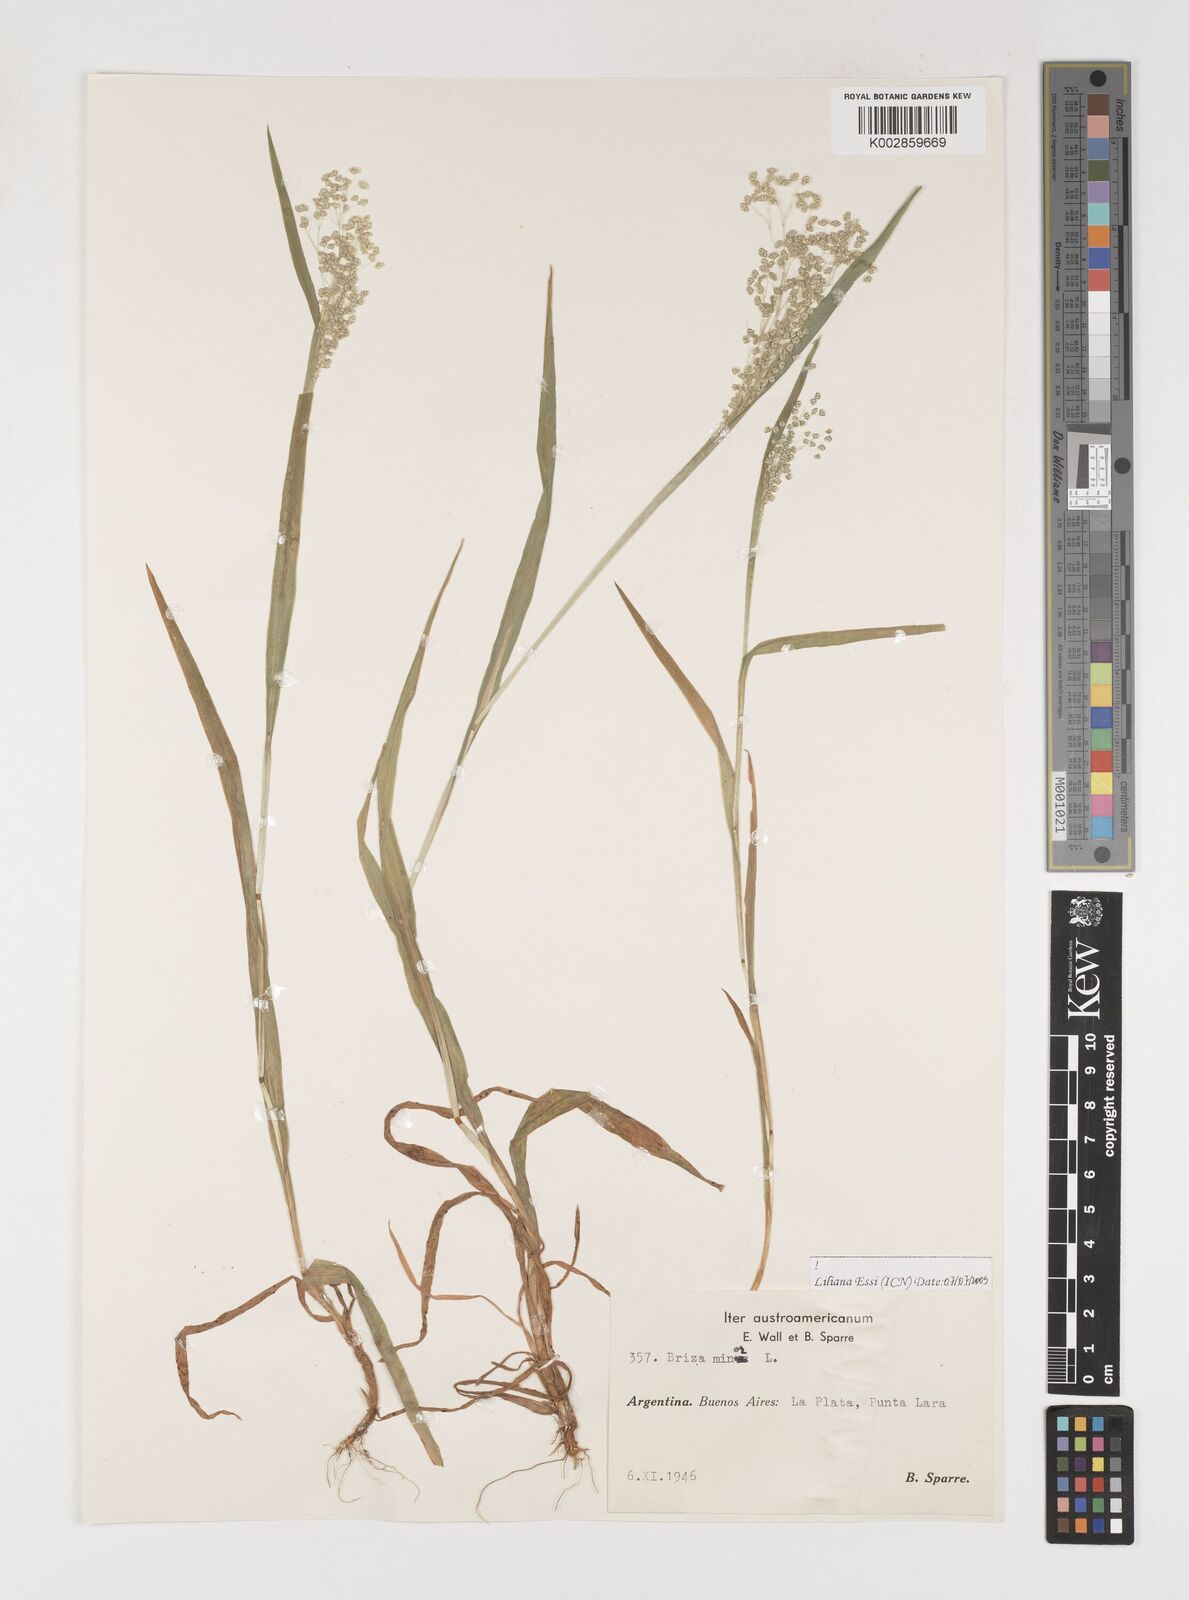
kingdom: Plantae
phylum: Tracheophyta
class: Liliopsida
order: Poales
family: Poaceae
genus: Briza
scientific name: Briza minor
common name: Lesser quaking-grass
